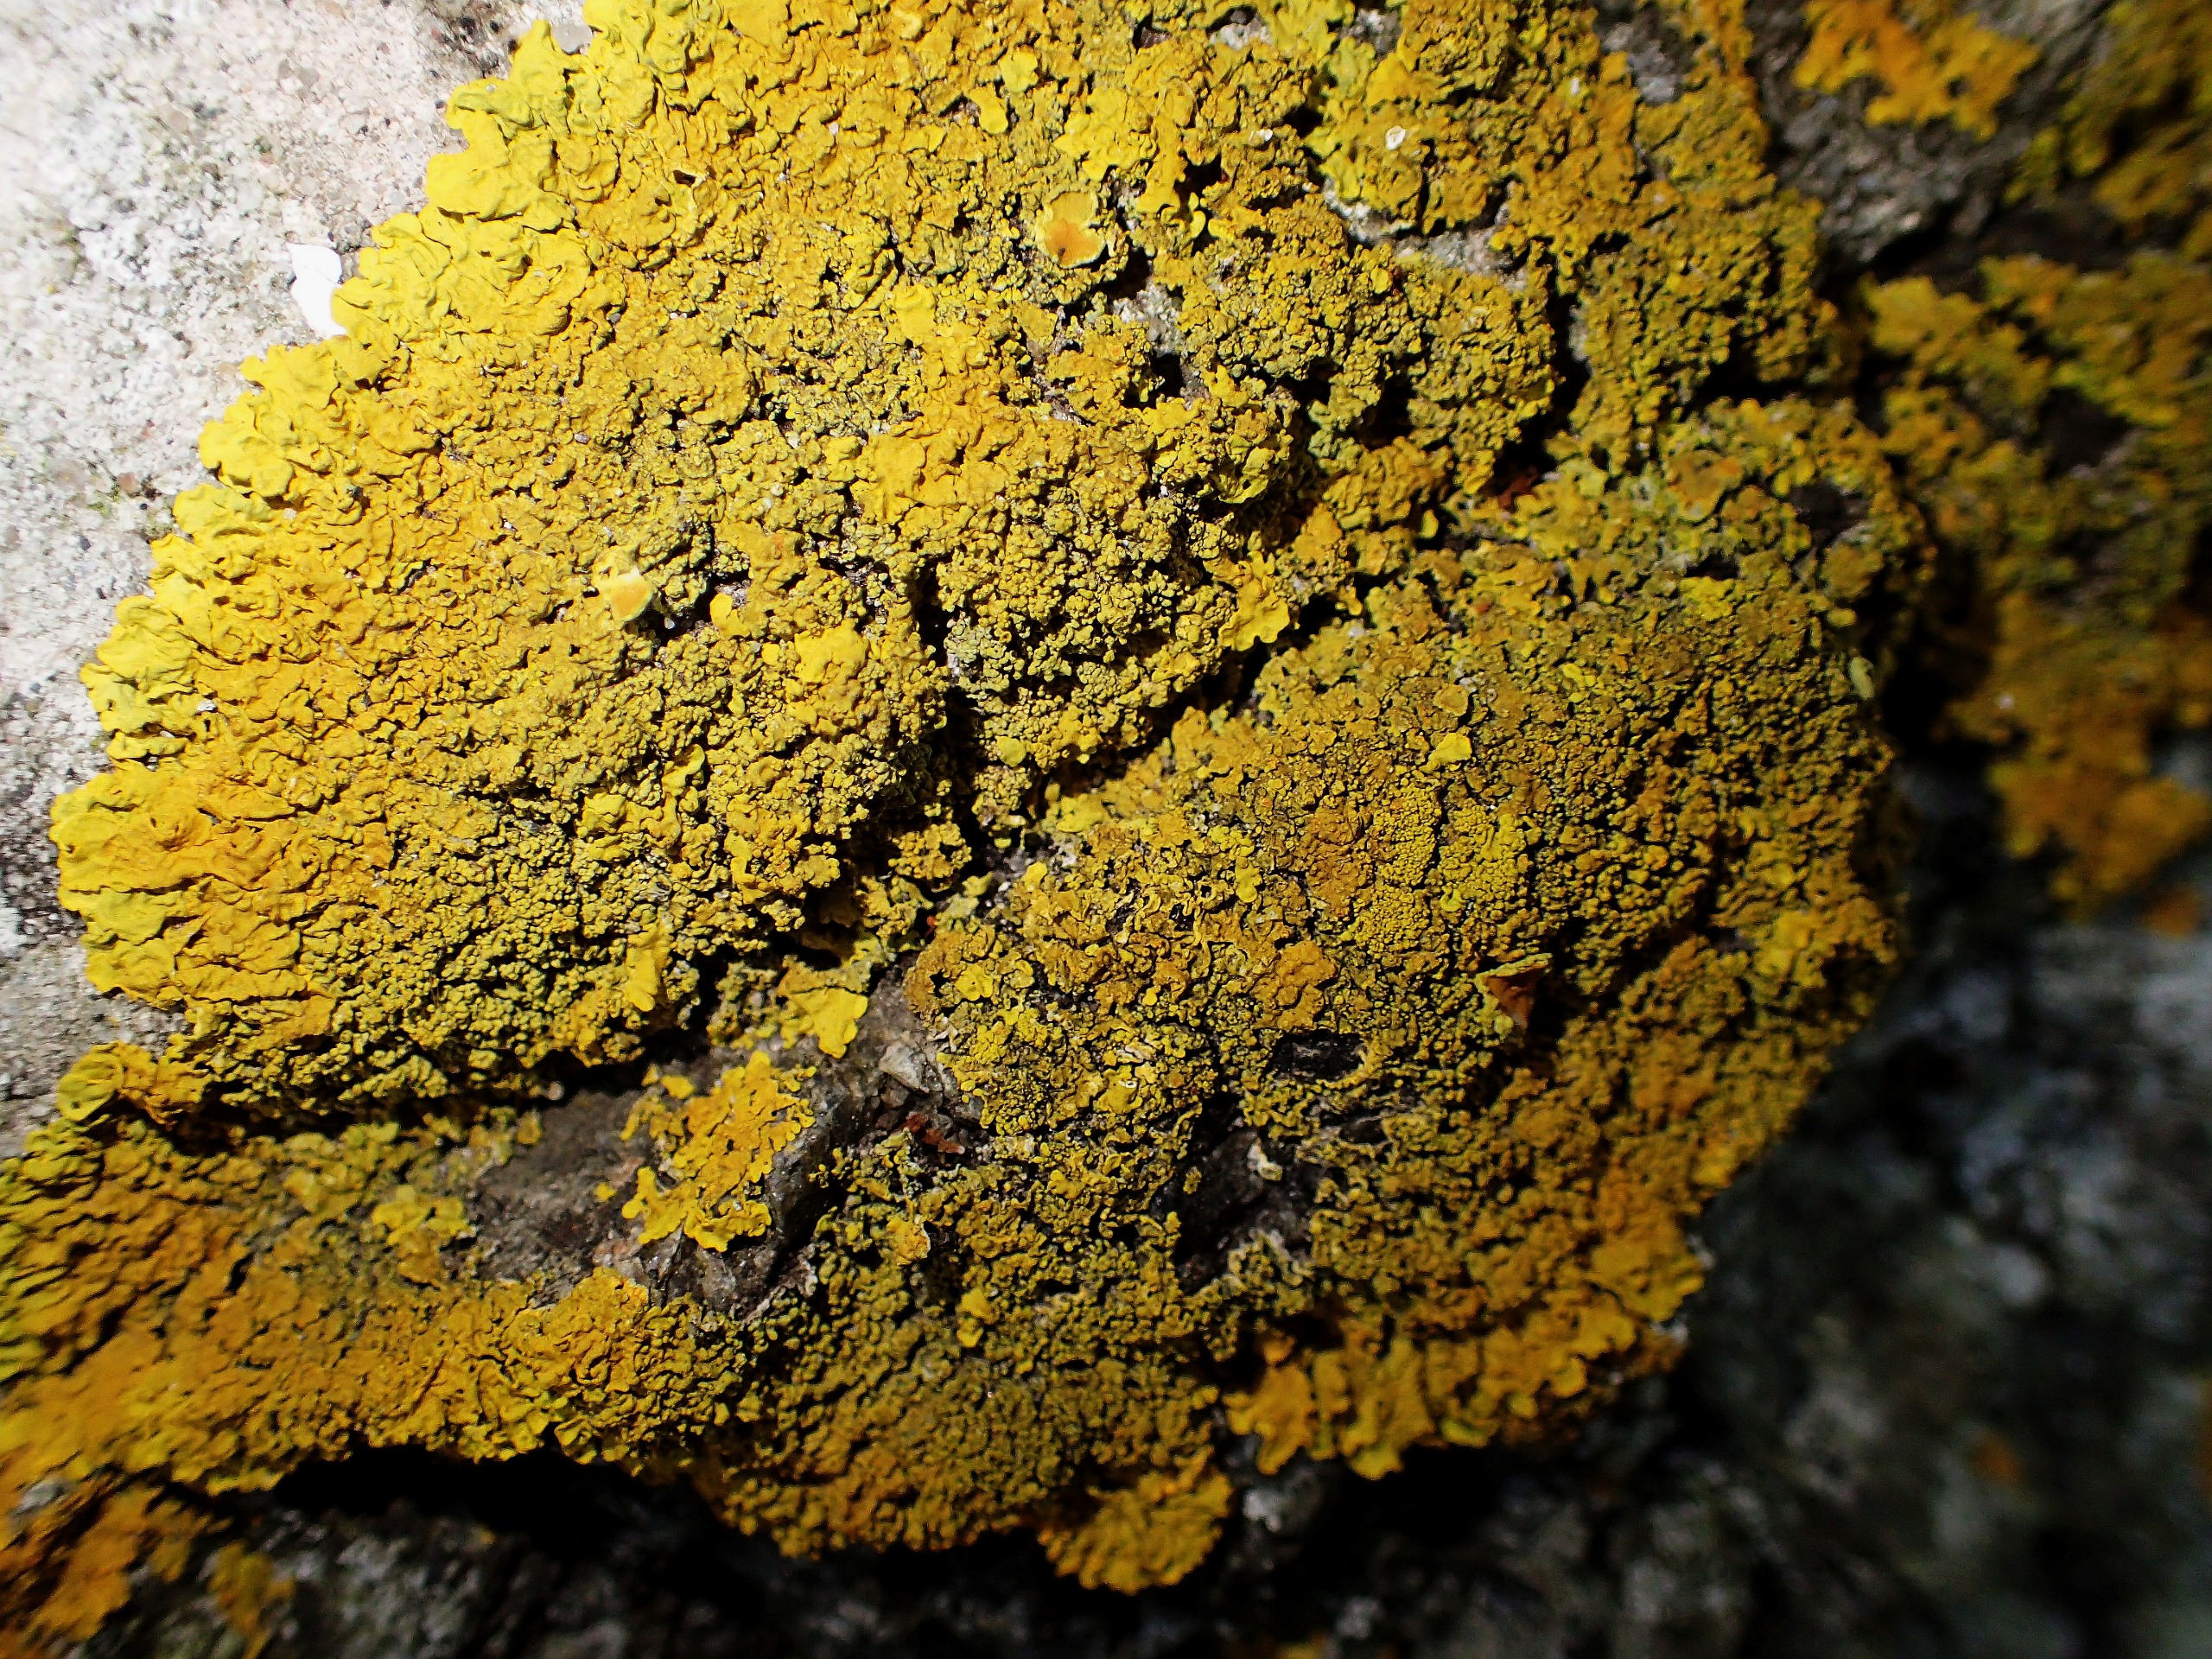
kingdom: Fungi
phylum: Ascomycota
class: Lecanoromycetes
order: Teloschistales
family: Teloschistaceae
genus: Xanthoria
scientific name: Xanthoria calcicola
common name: Vortet væggelav
